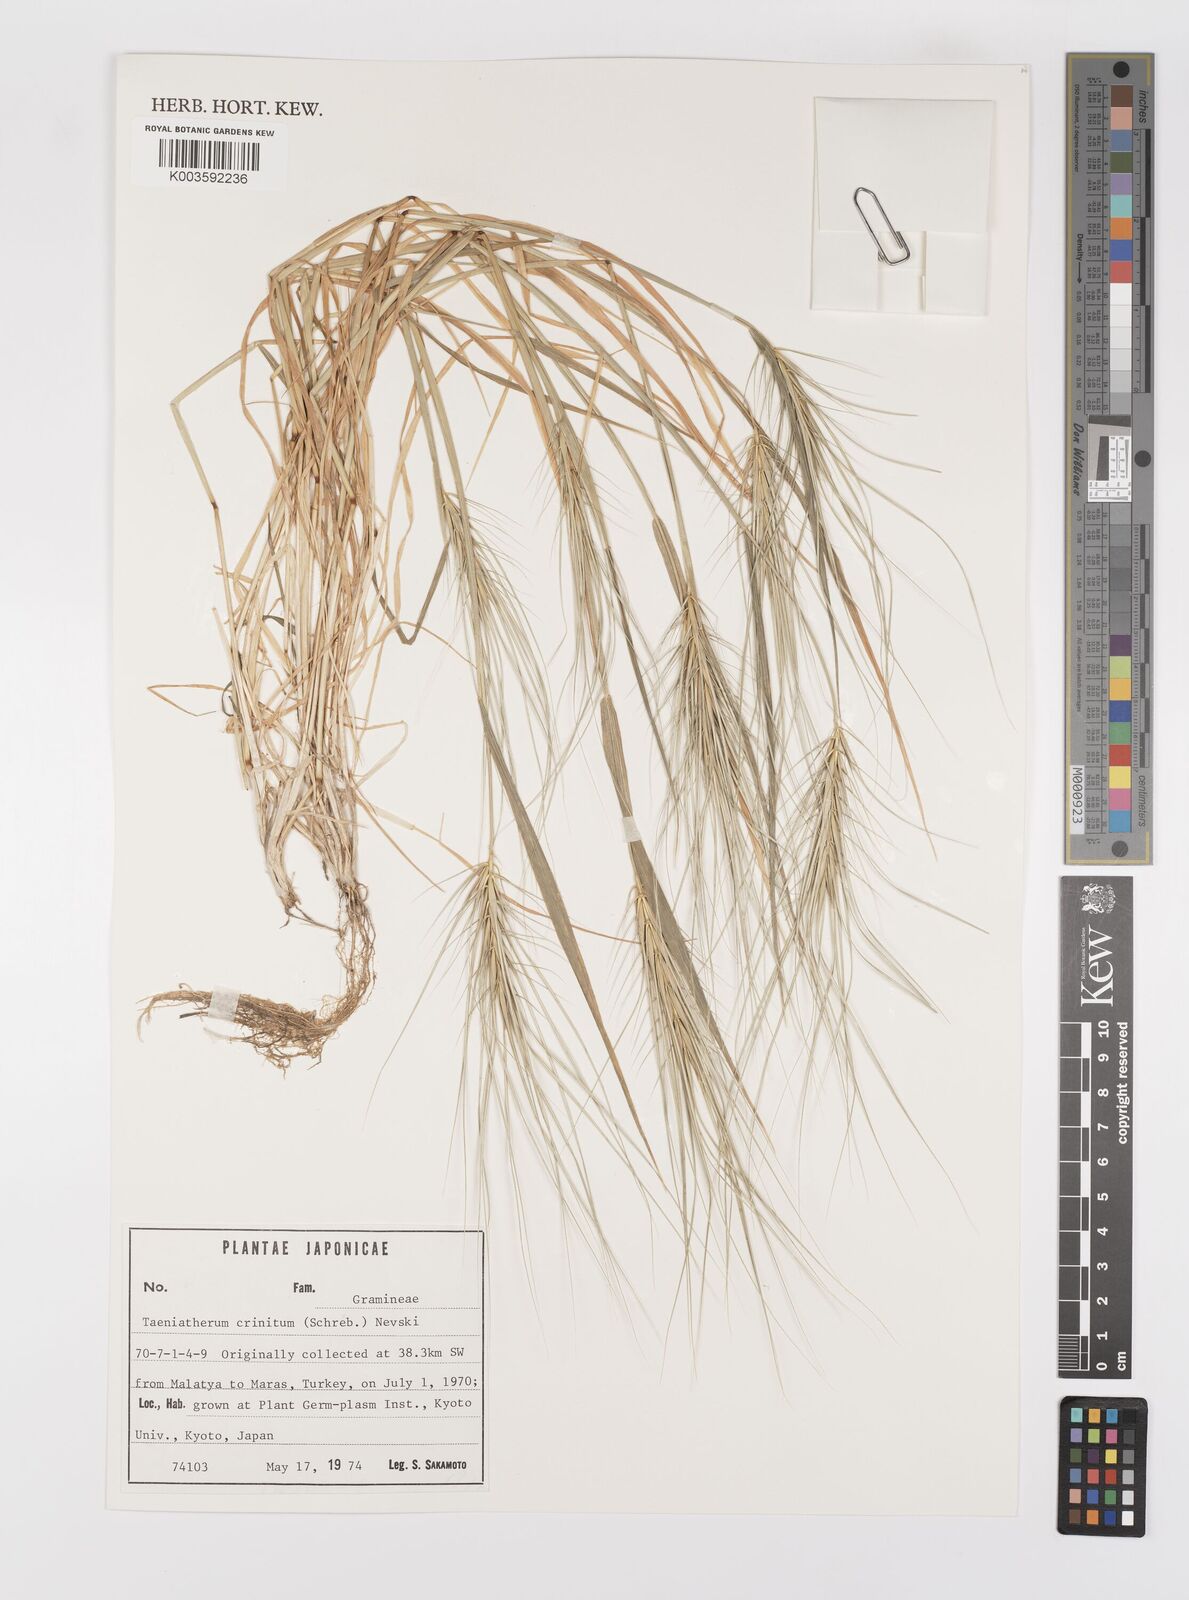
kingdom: Plantae
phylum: Tracheophyta
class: Liliopsida
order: Poales
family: Poaceae
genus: Taeniatherum
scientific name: Taeniatherum caput-medusae
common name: Medusahead
